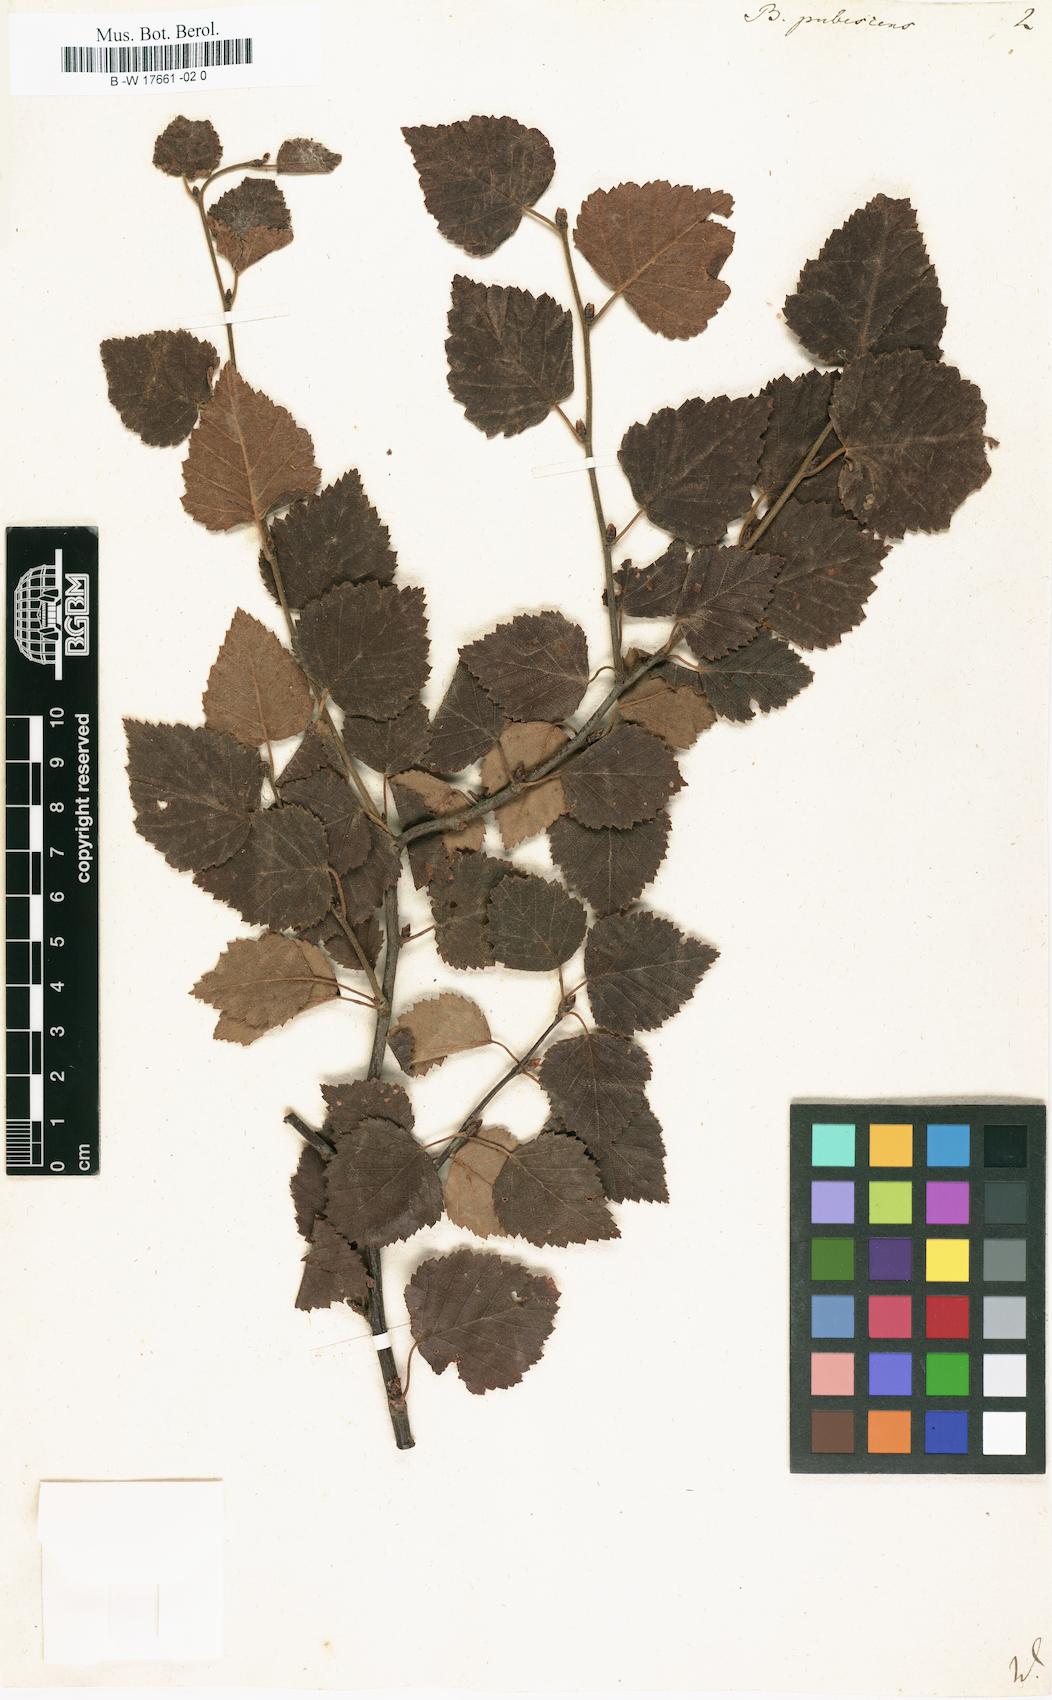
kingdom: Plantae
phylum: Tracheophyta
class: Magnoliopsida
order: Fagales
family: Betulaceae
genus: Betula
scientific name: Betula pubescens
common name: Downy birch
